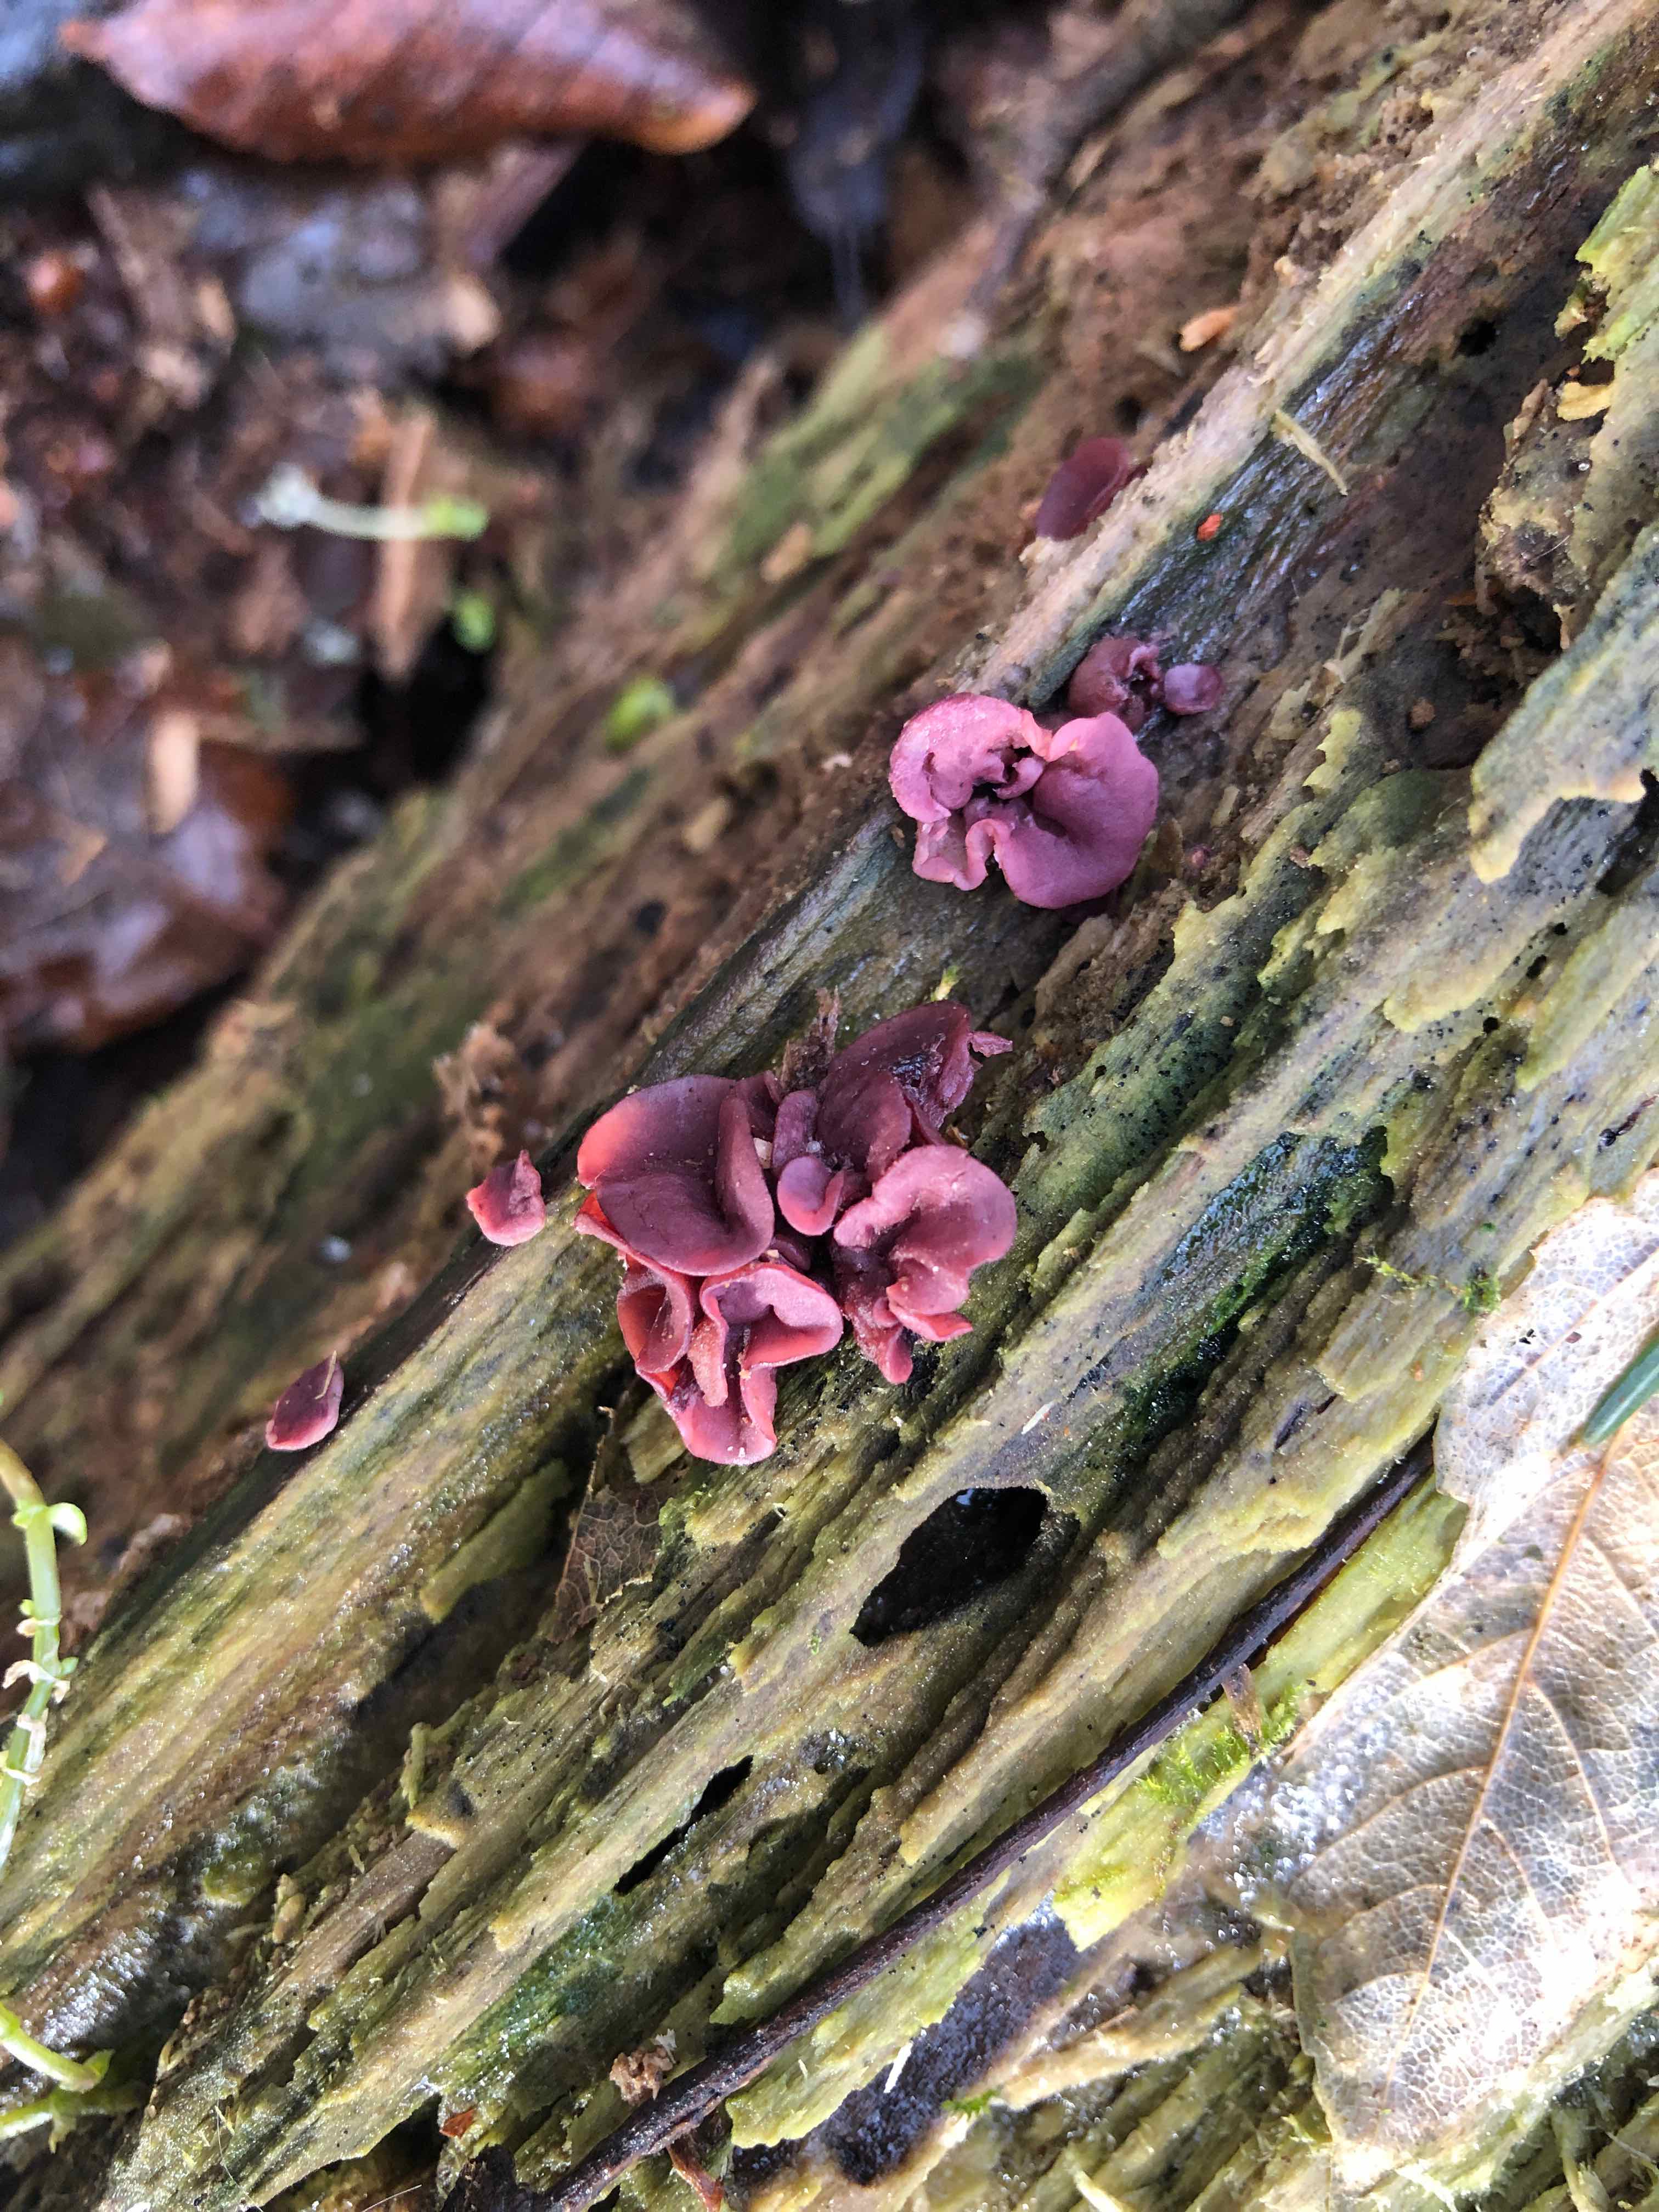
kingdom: Fungi
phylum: Ascomycota
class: Leotiomycetes
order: Helotiales
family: Gelatinodiscaceae
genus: Ascocoryne
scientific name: Ascocoryne cylichnium
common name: stor sejskive
